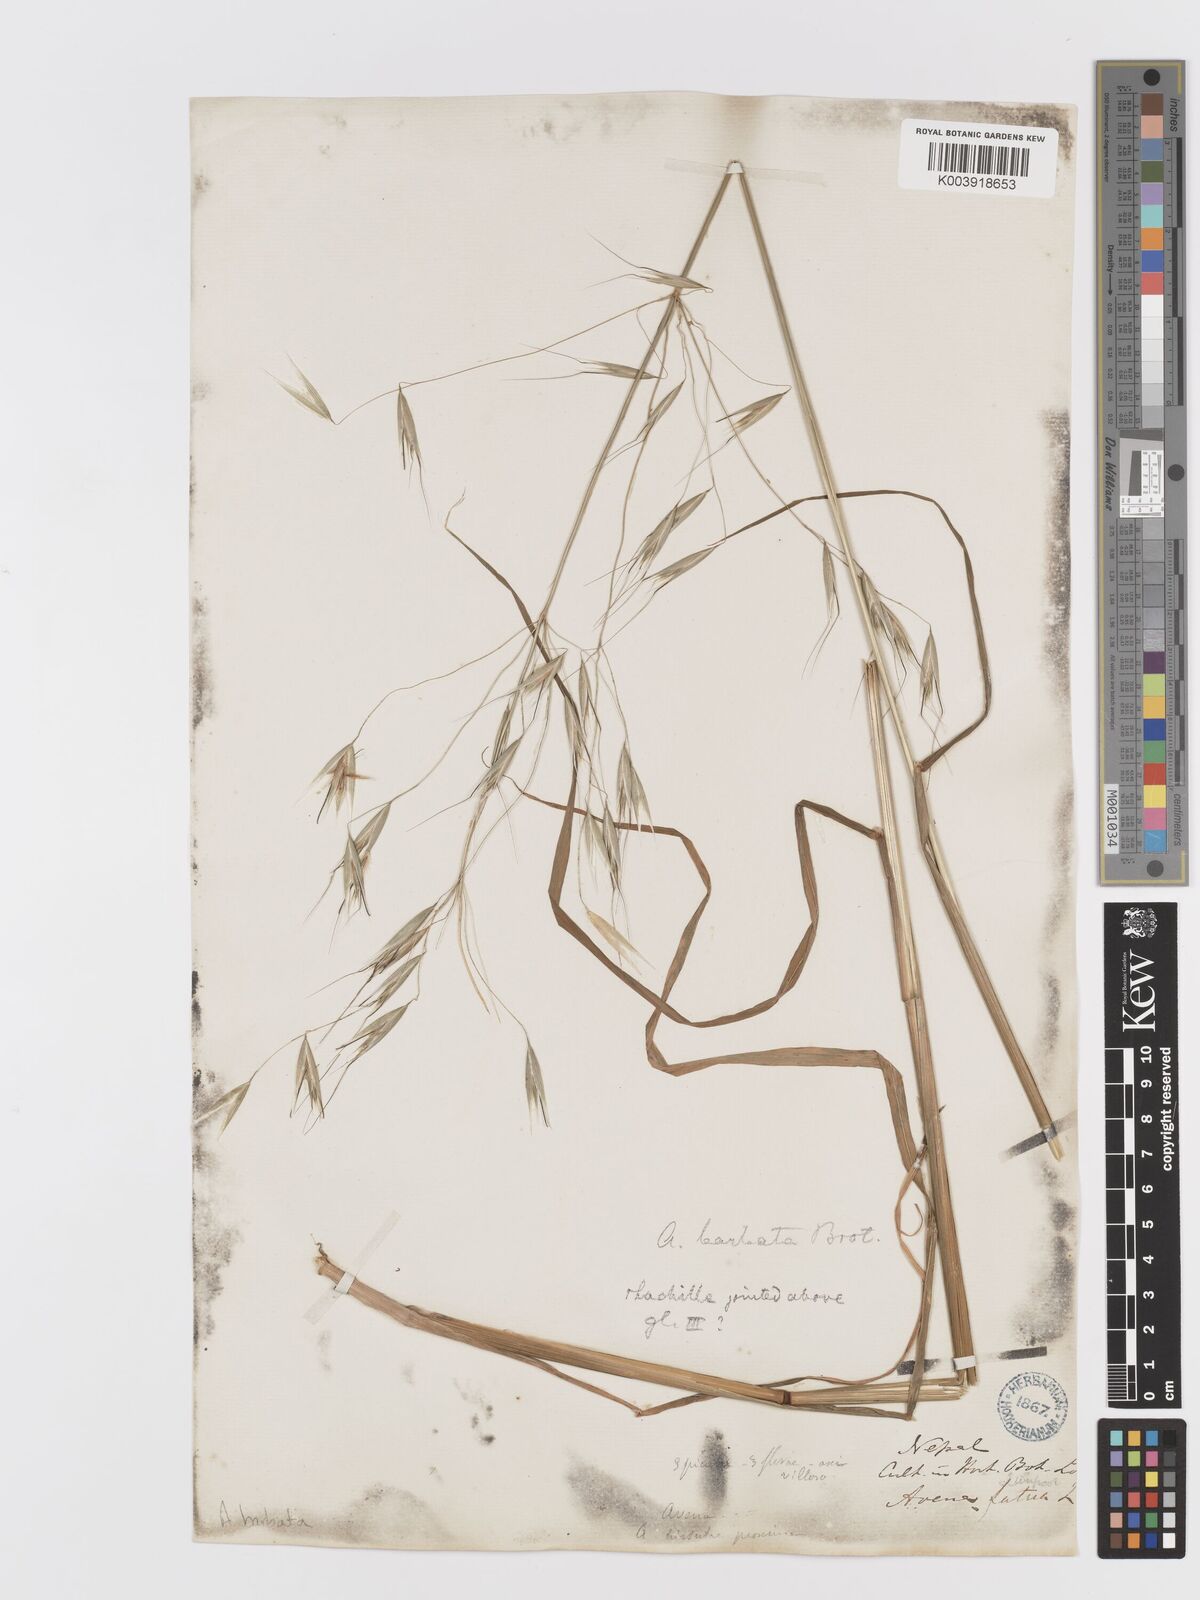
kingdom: Plantae
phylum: Tracheophyta
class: Liliopsida
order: Poales
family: Poaceae
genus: Avena
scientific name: Avena
